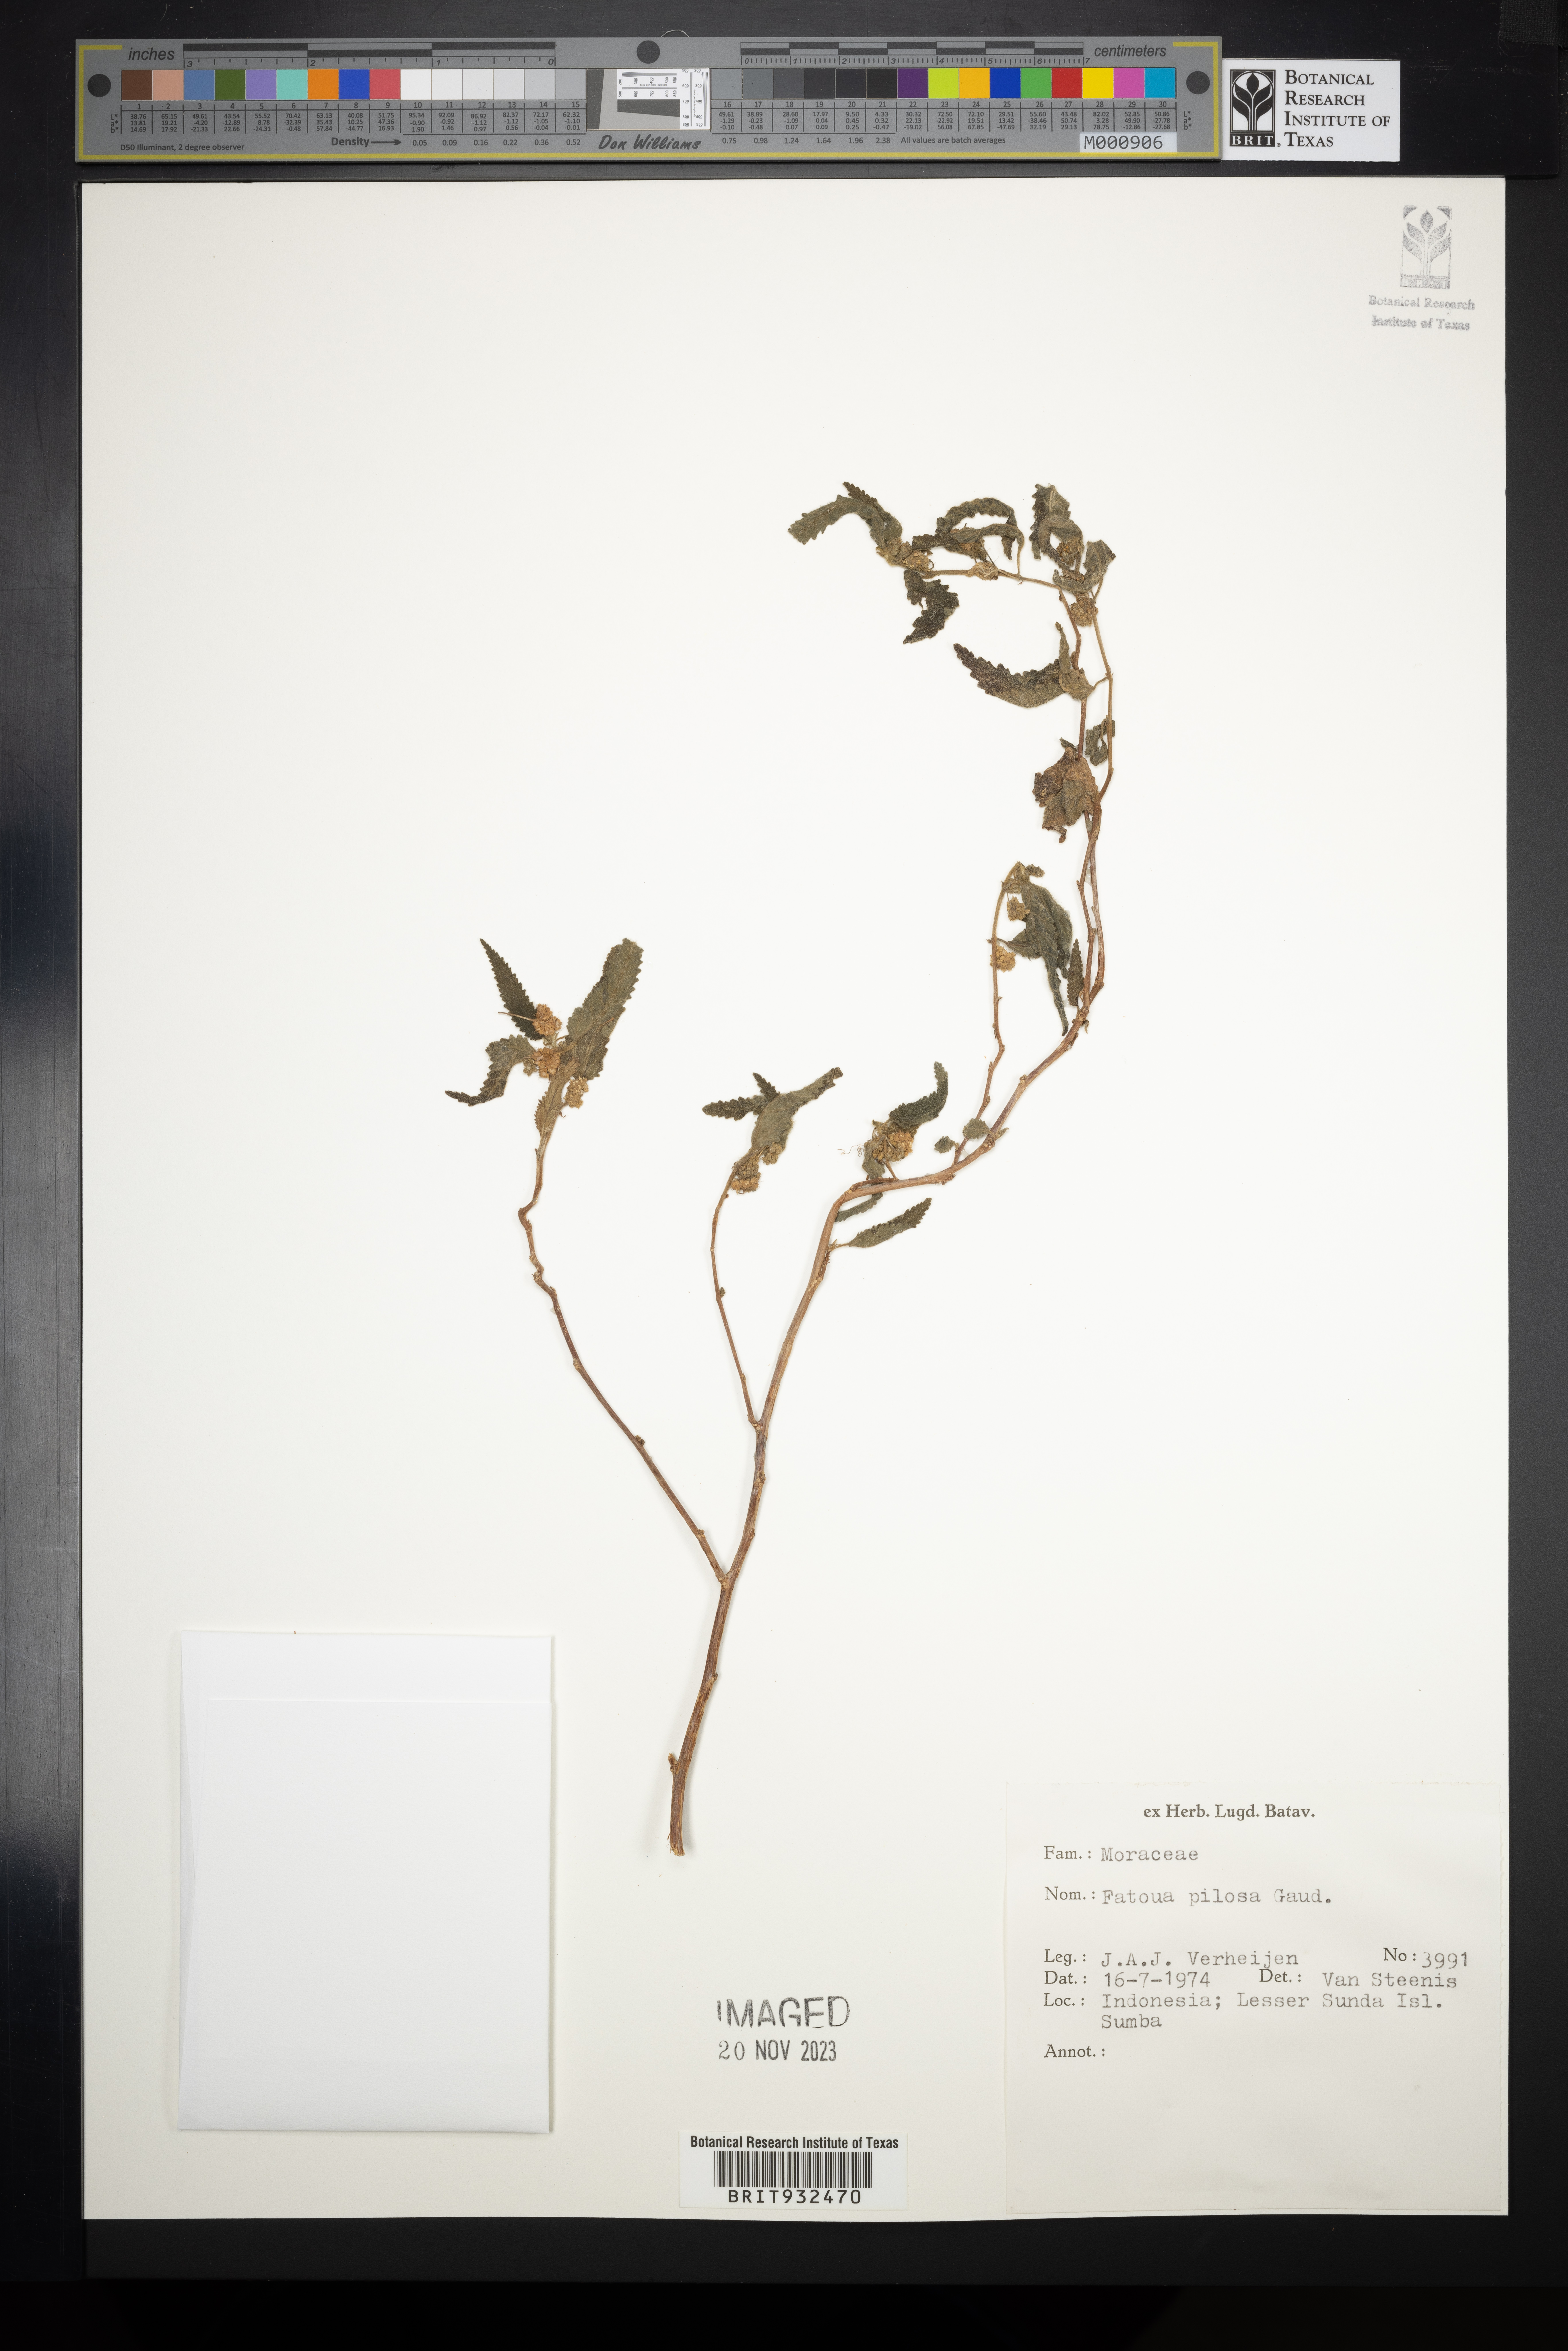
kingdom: Plantae
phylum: Tracheophyta
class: Magnoliopsida
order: Rosales
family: Moraceae
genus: Fatoua
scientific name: Fatoua
